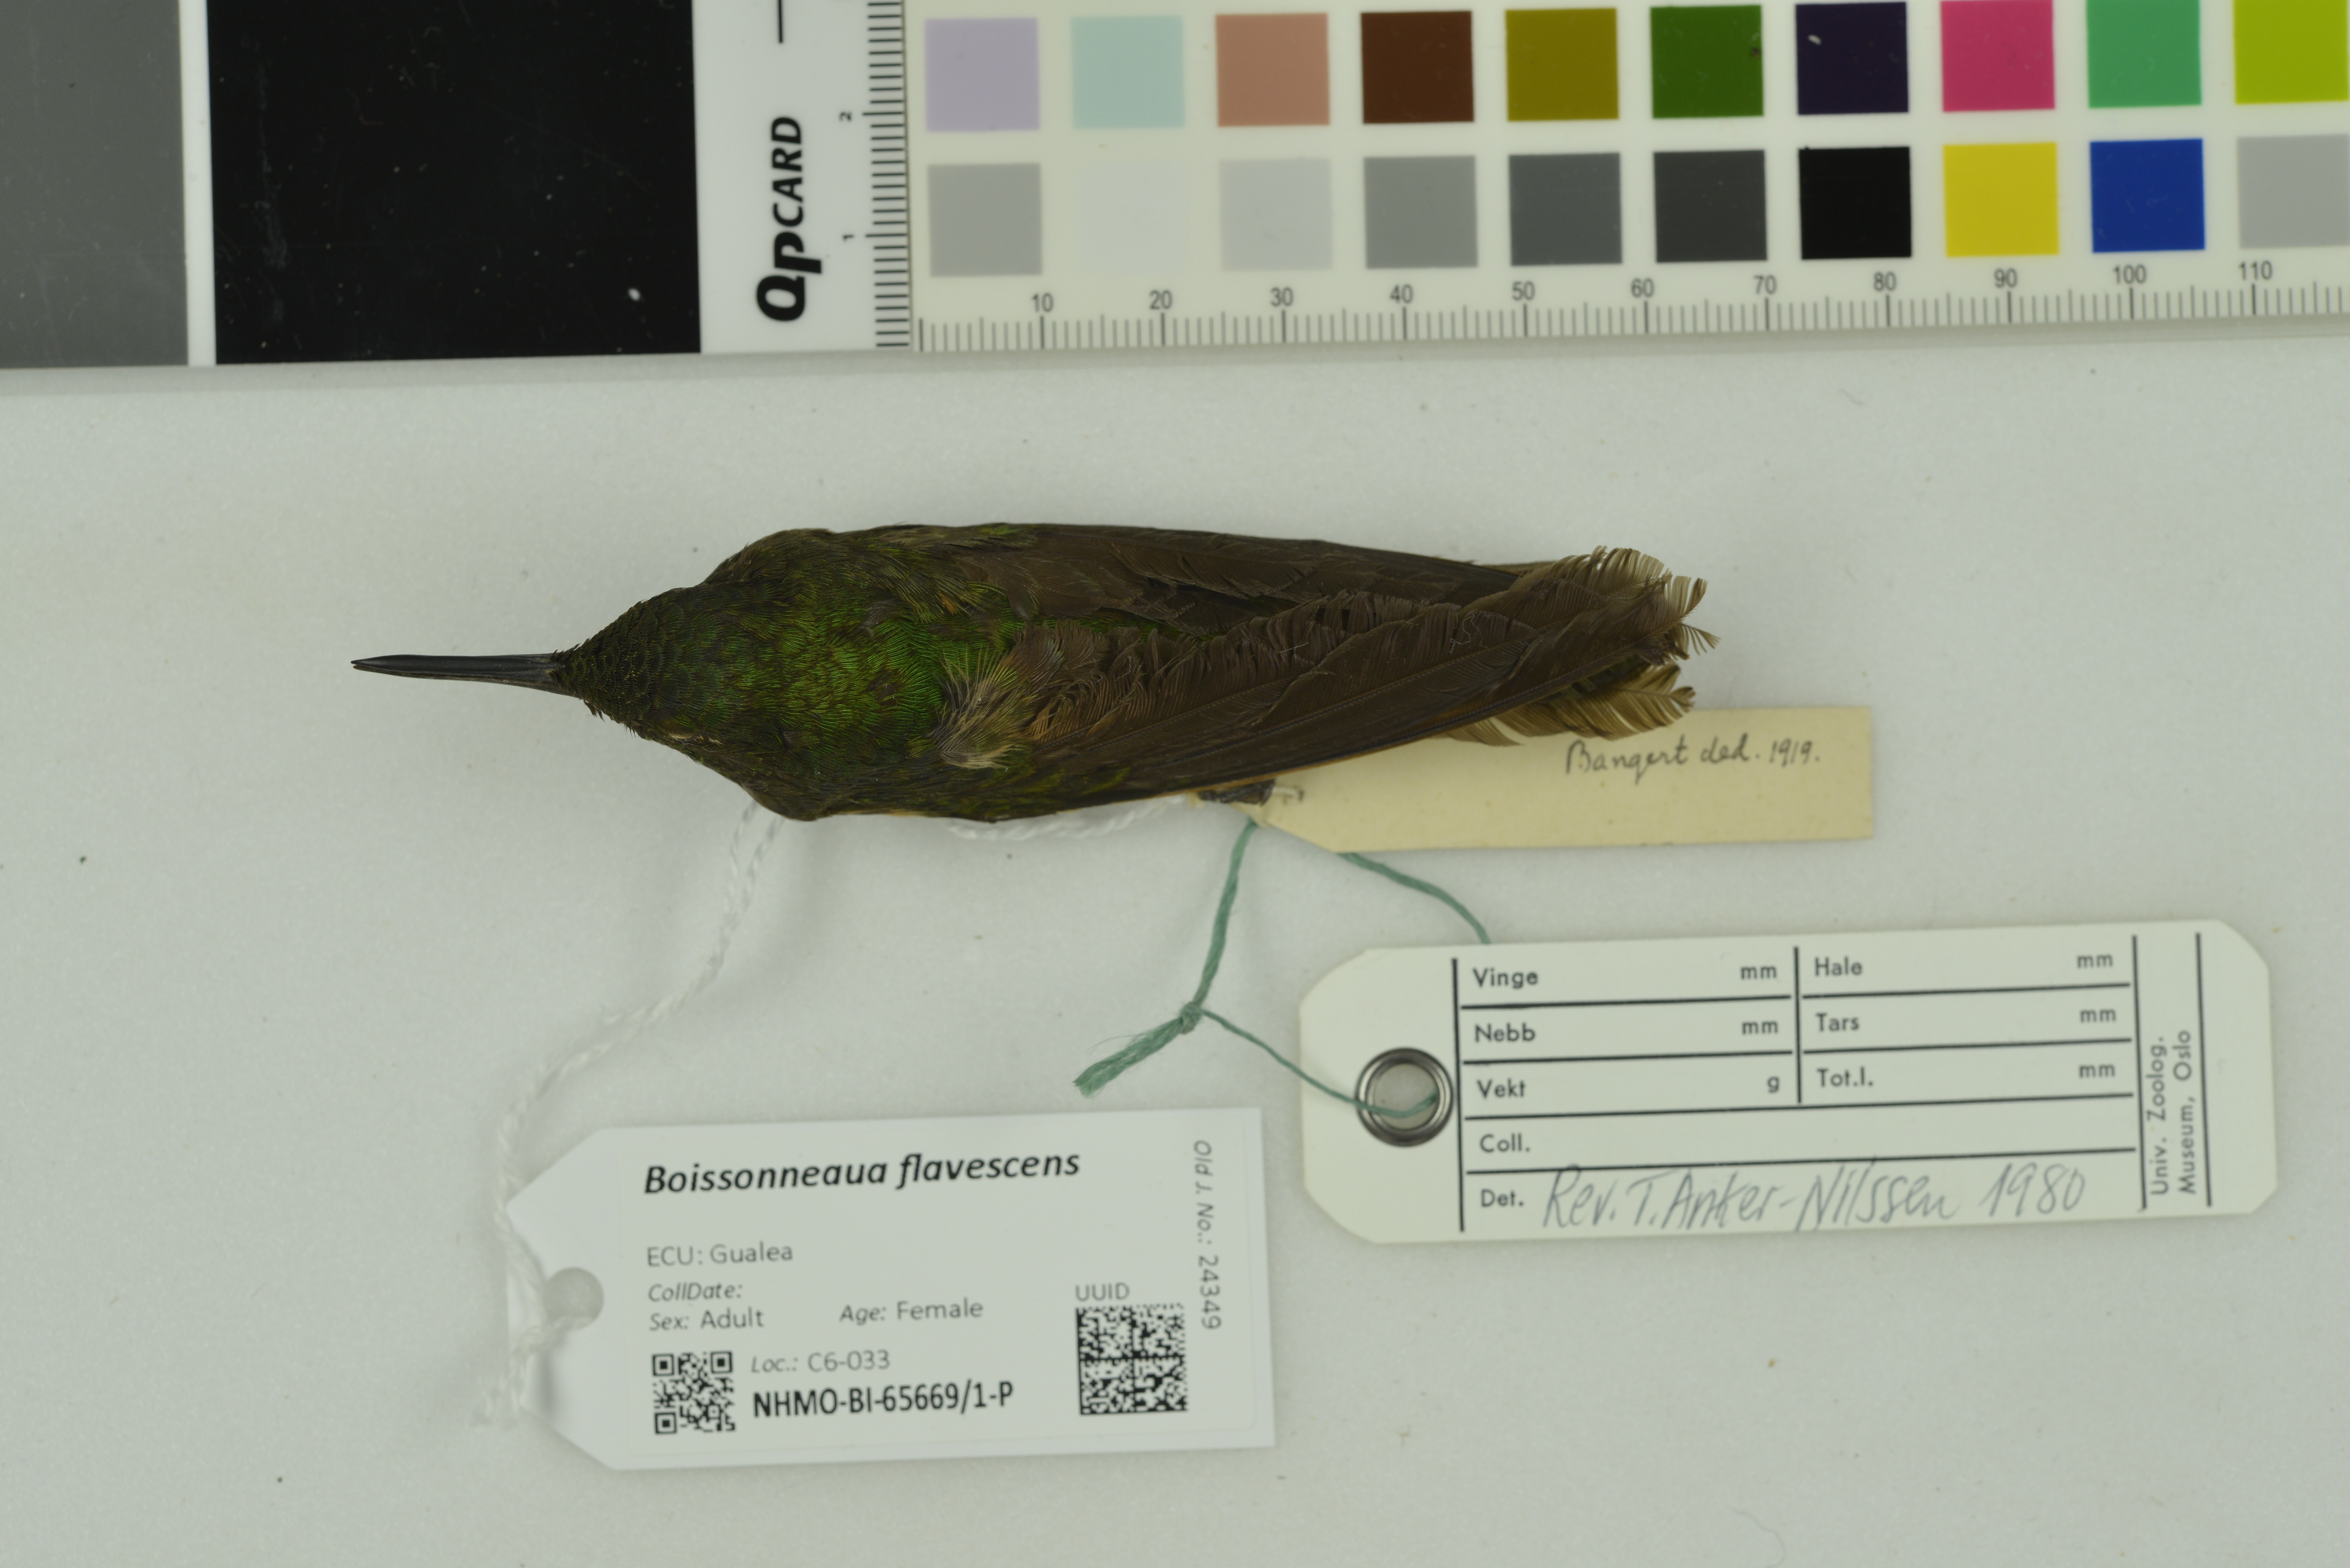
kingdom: Animalia
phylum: Chordata
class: Aves
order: Apodiformes
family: Trochilidae
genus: Boissonneaua
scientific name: Boissonneaua flavescens
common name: Buff-tailed coronet
